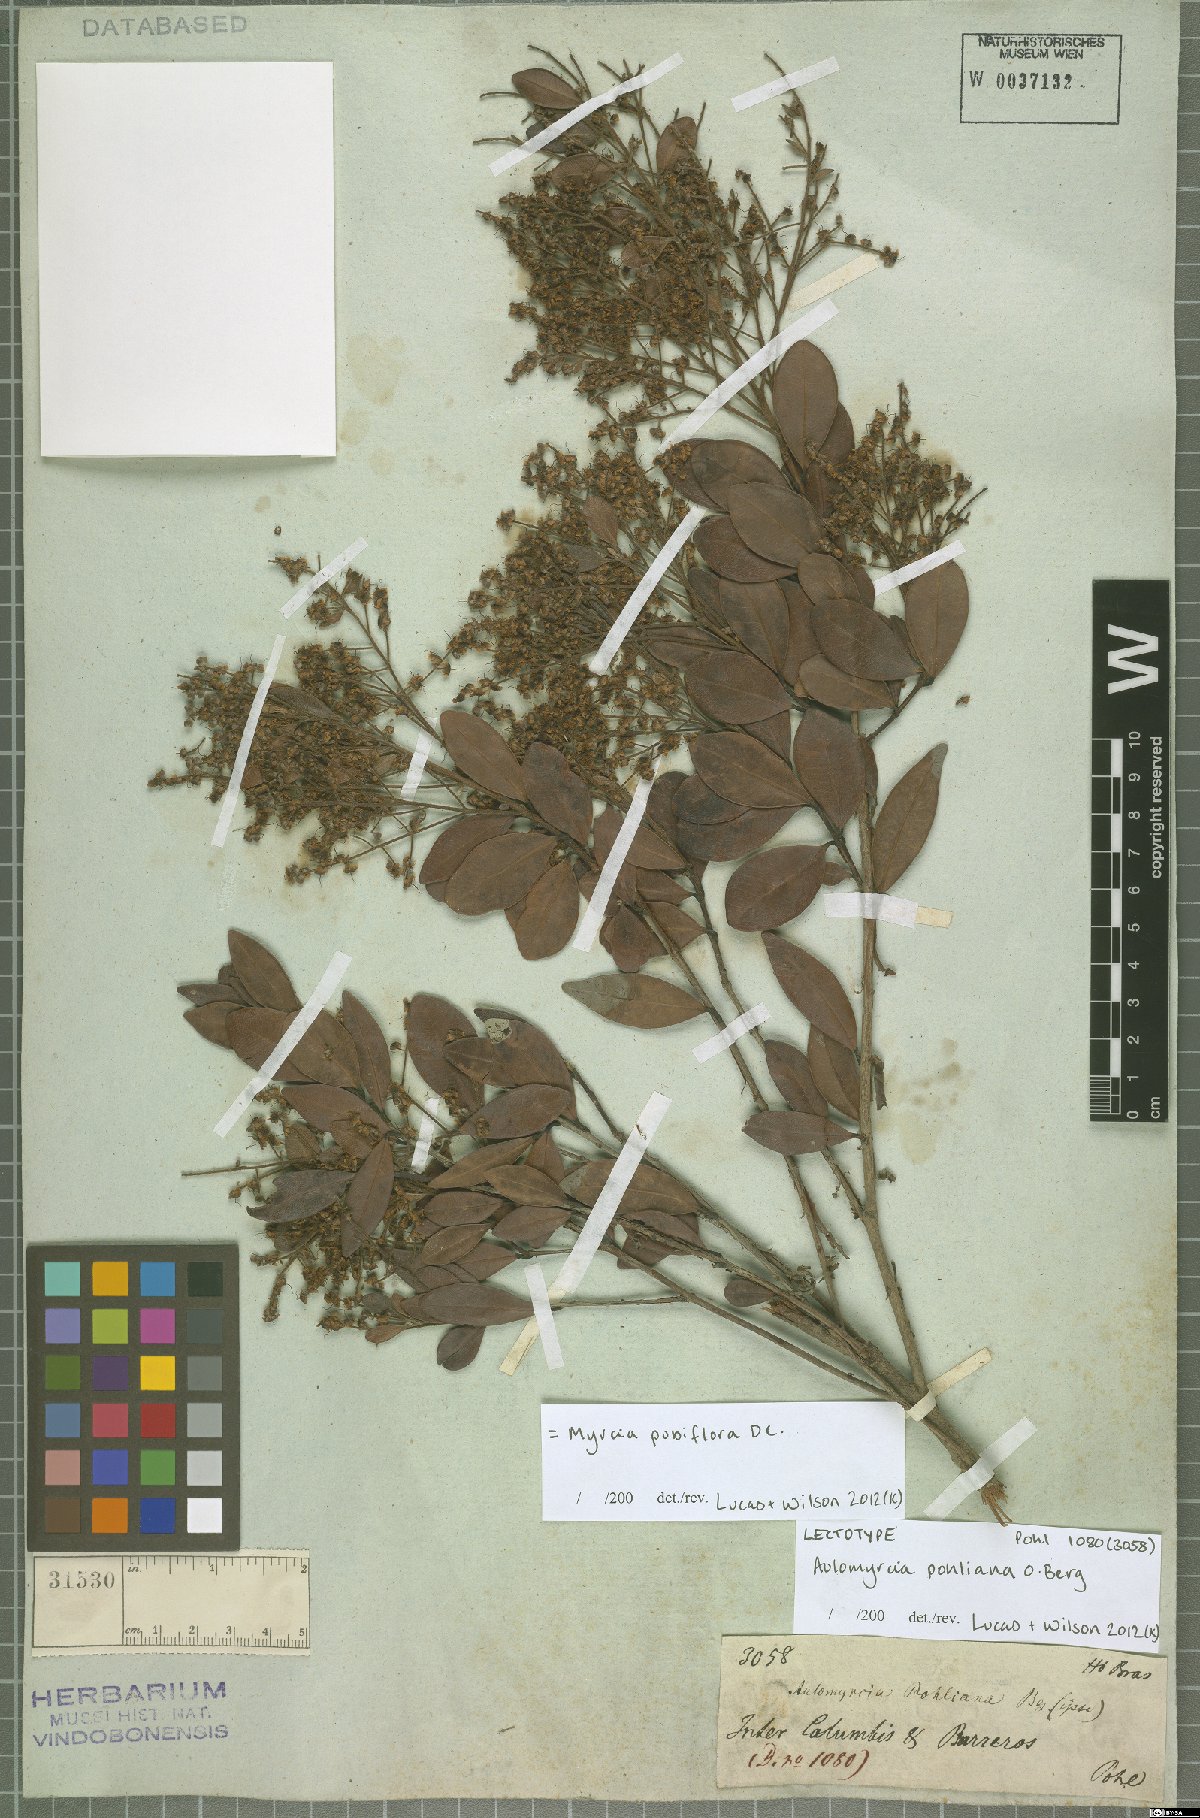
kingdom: Plantae
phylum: Tracheophyta
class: Magnoliopsida
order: Myrtales
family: Myrtaceae
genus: Myrcia
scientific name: Myrcia pubiflora
